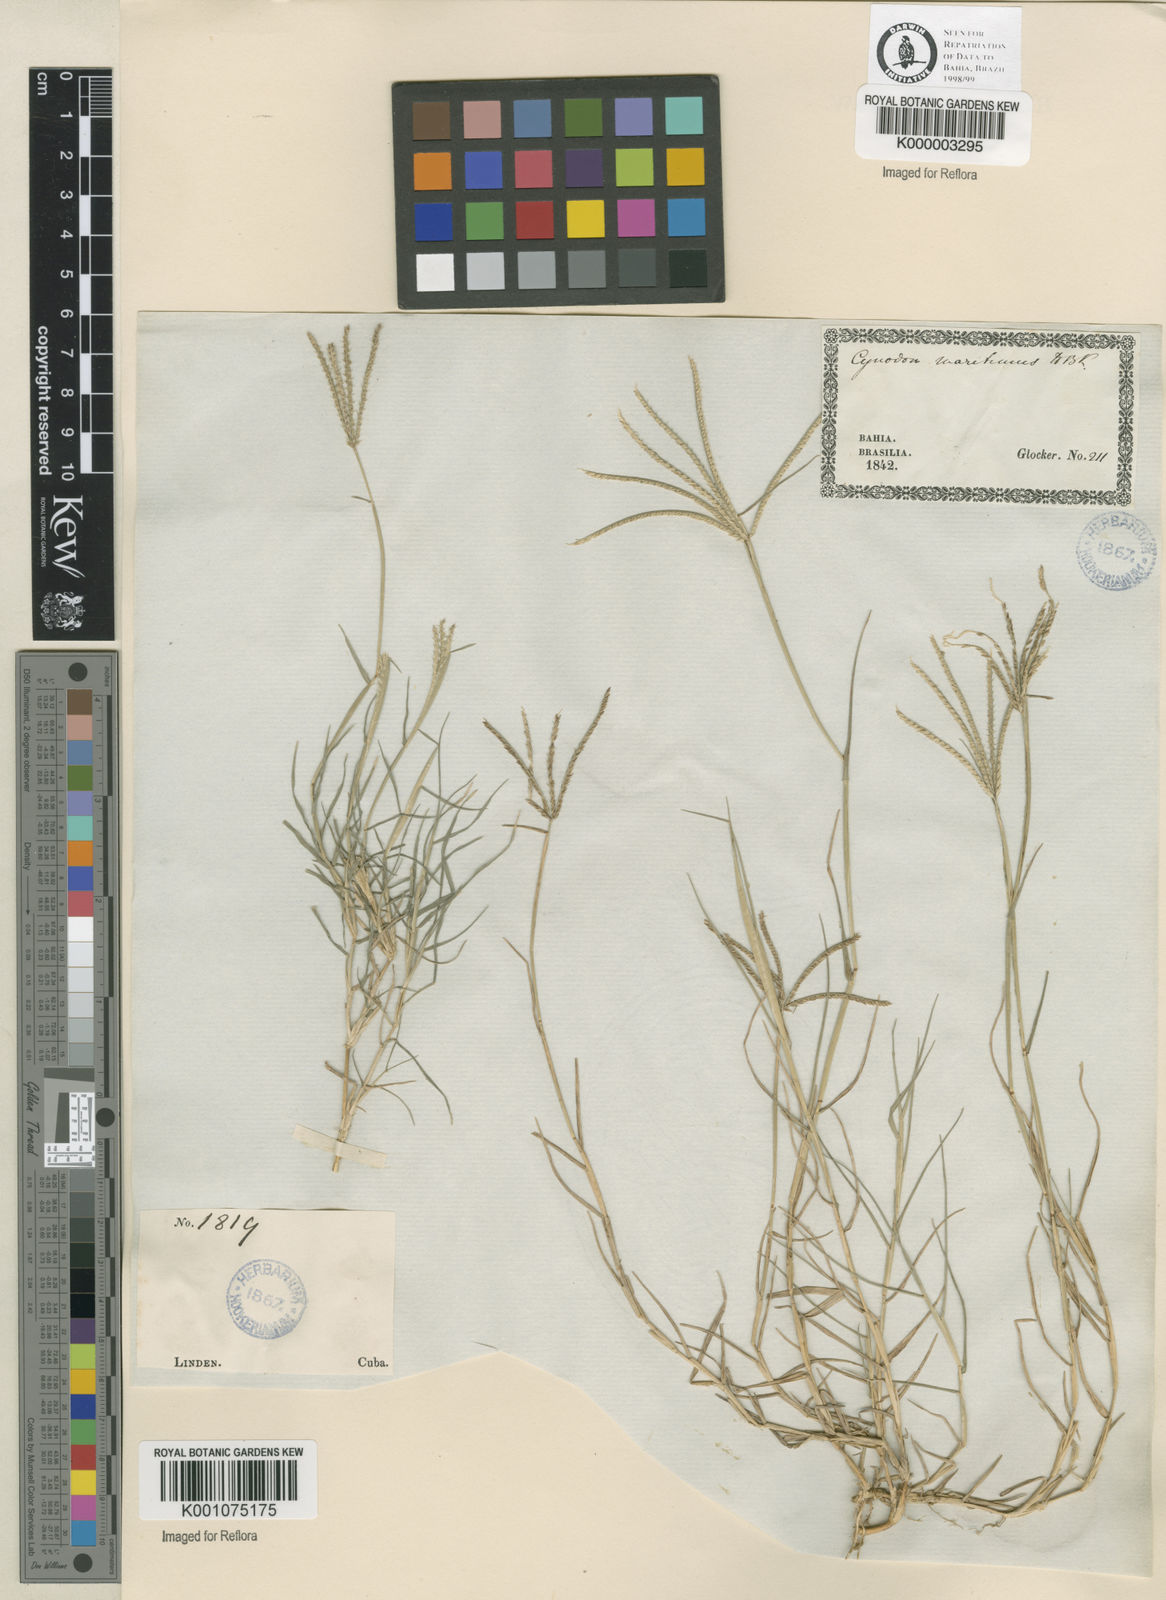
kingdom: Plantae
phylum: Tracheophyta
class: Liliopsida
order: Poales
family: Poaceae
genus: Cynodon
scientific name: Cynodon dactylon
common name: Bermuda grass
